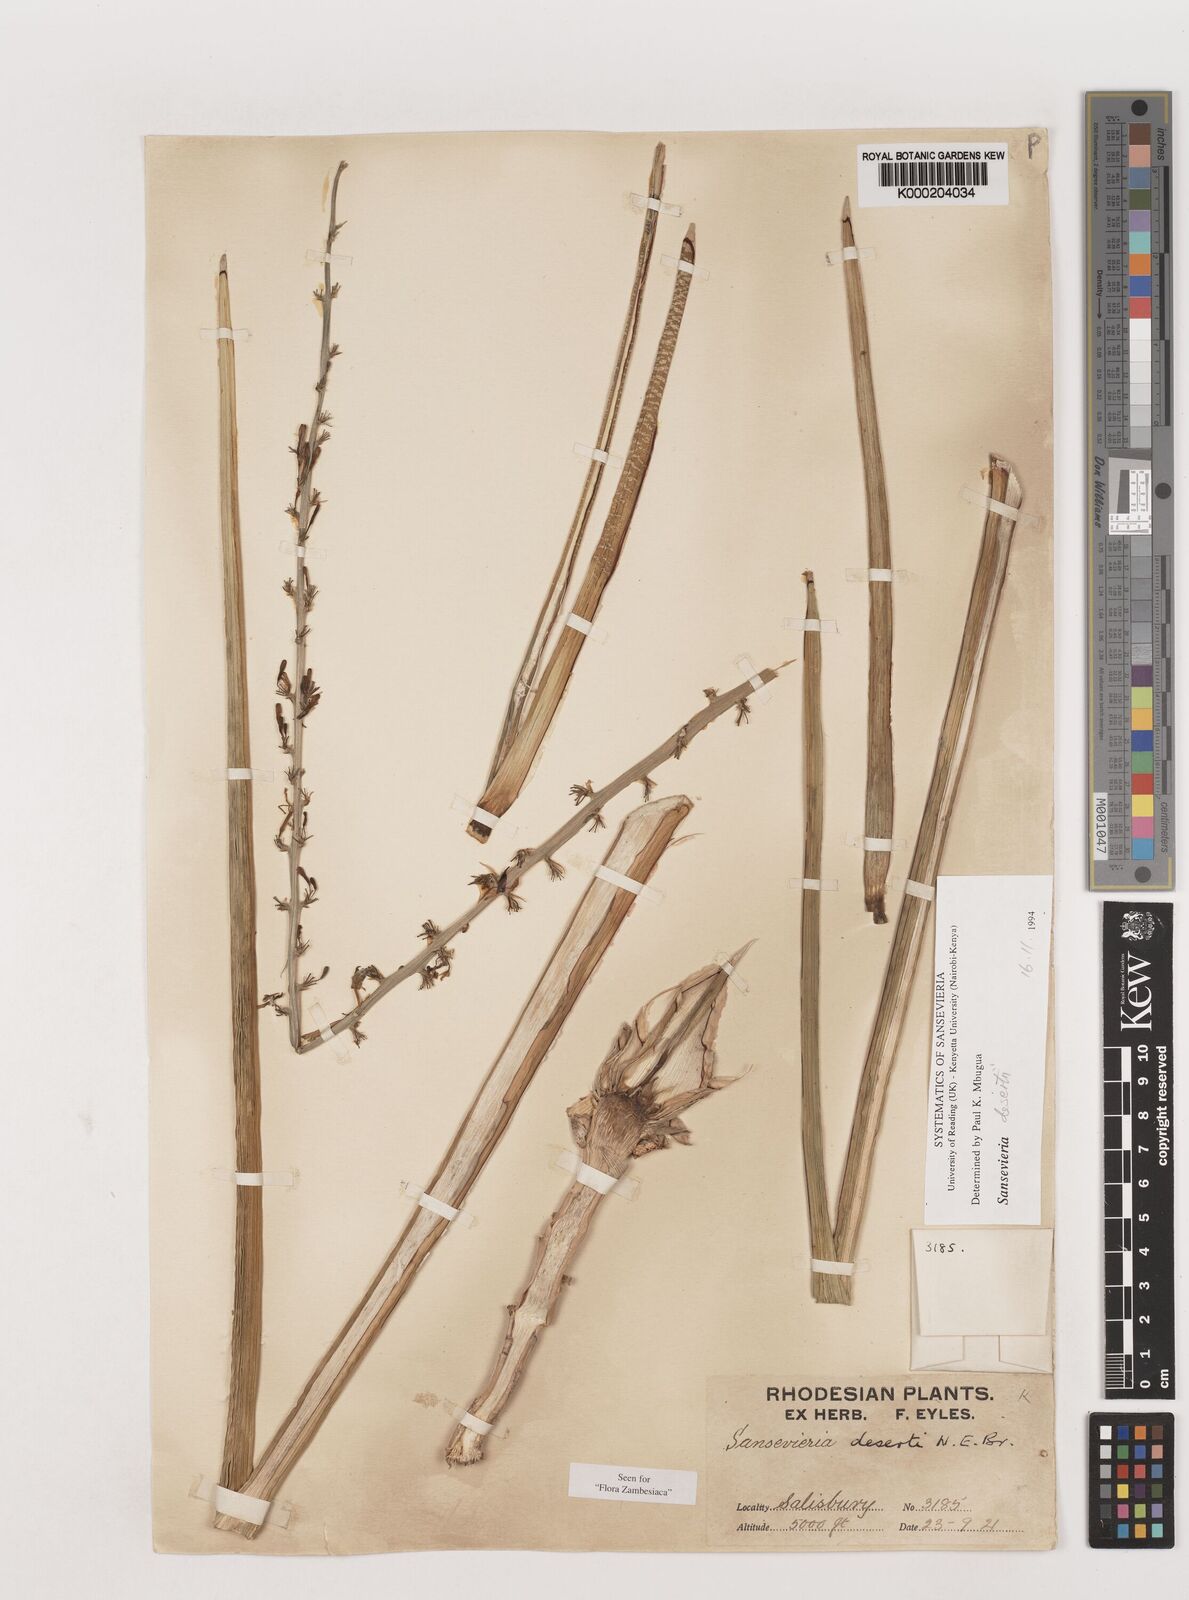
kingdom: Plantae
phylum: Tracheophyta
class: Liliopsida
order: Asparagales
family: Asparagaceae
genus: Dracaena
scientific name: Dracaena pearsonii
